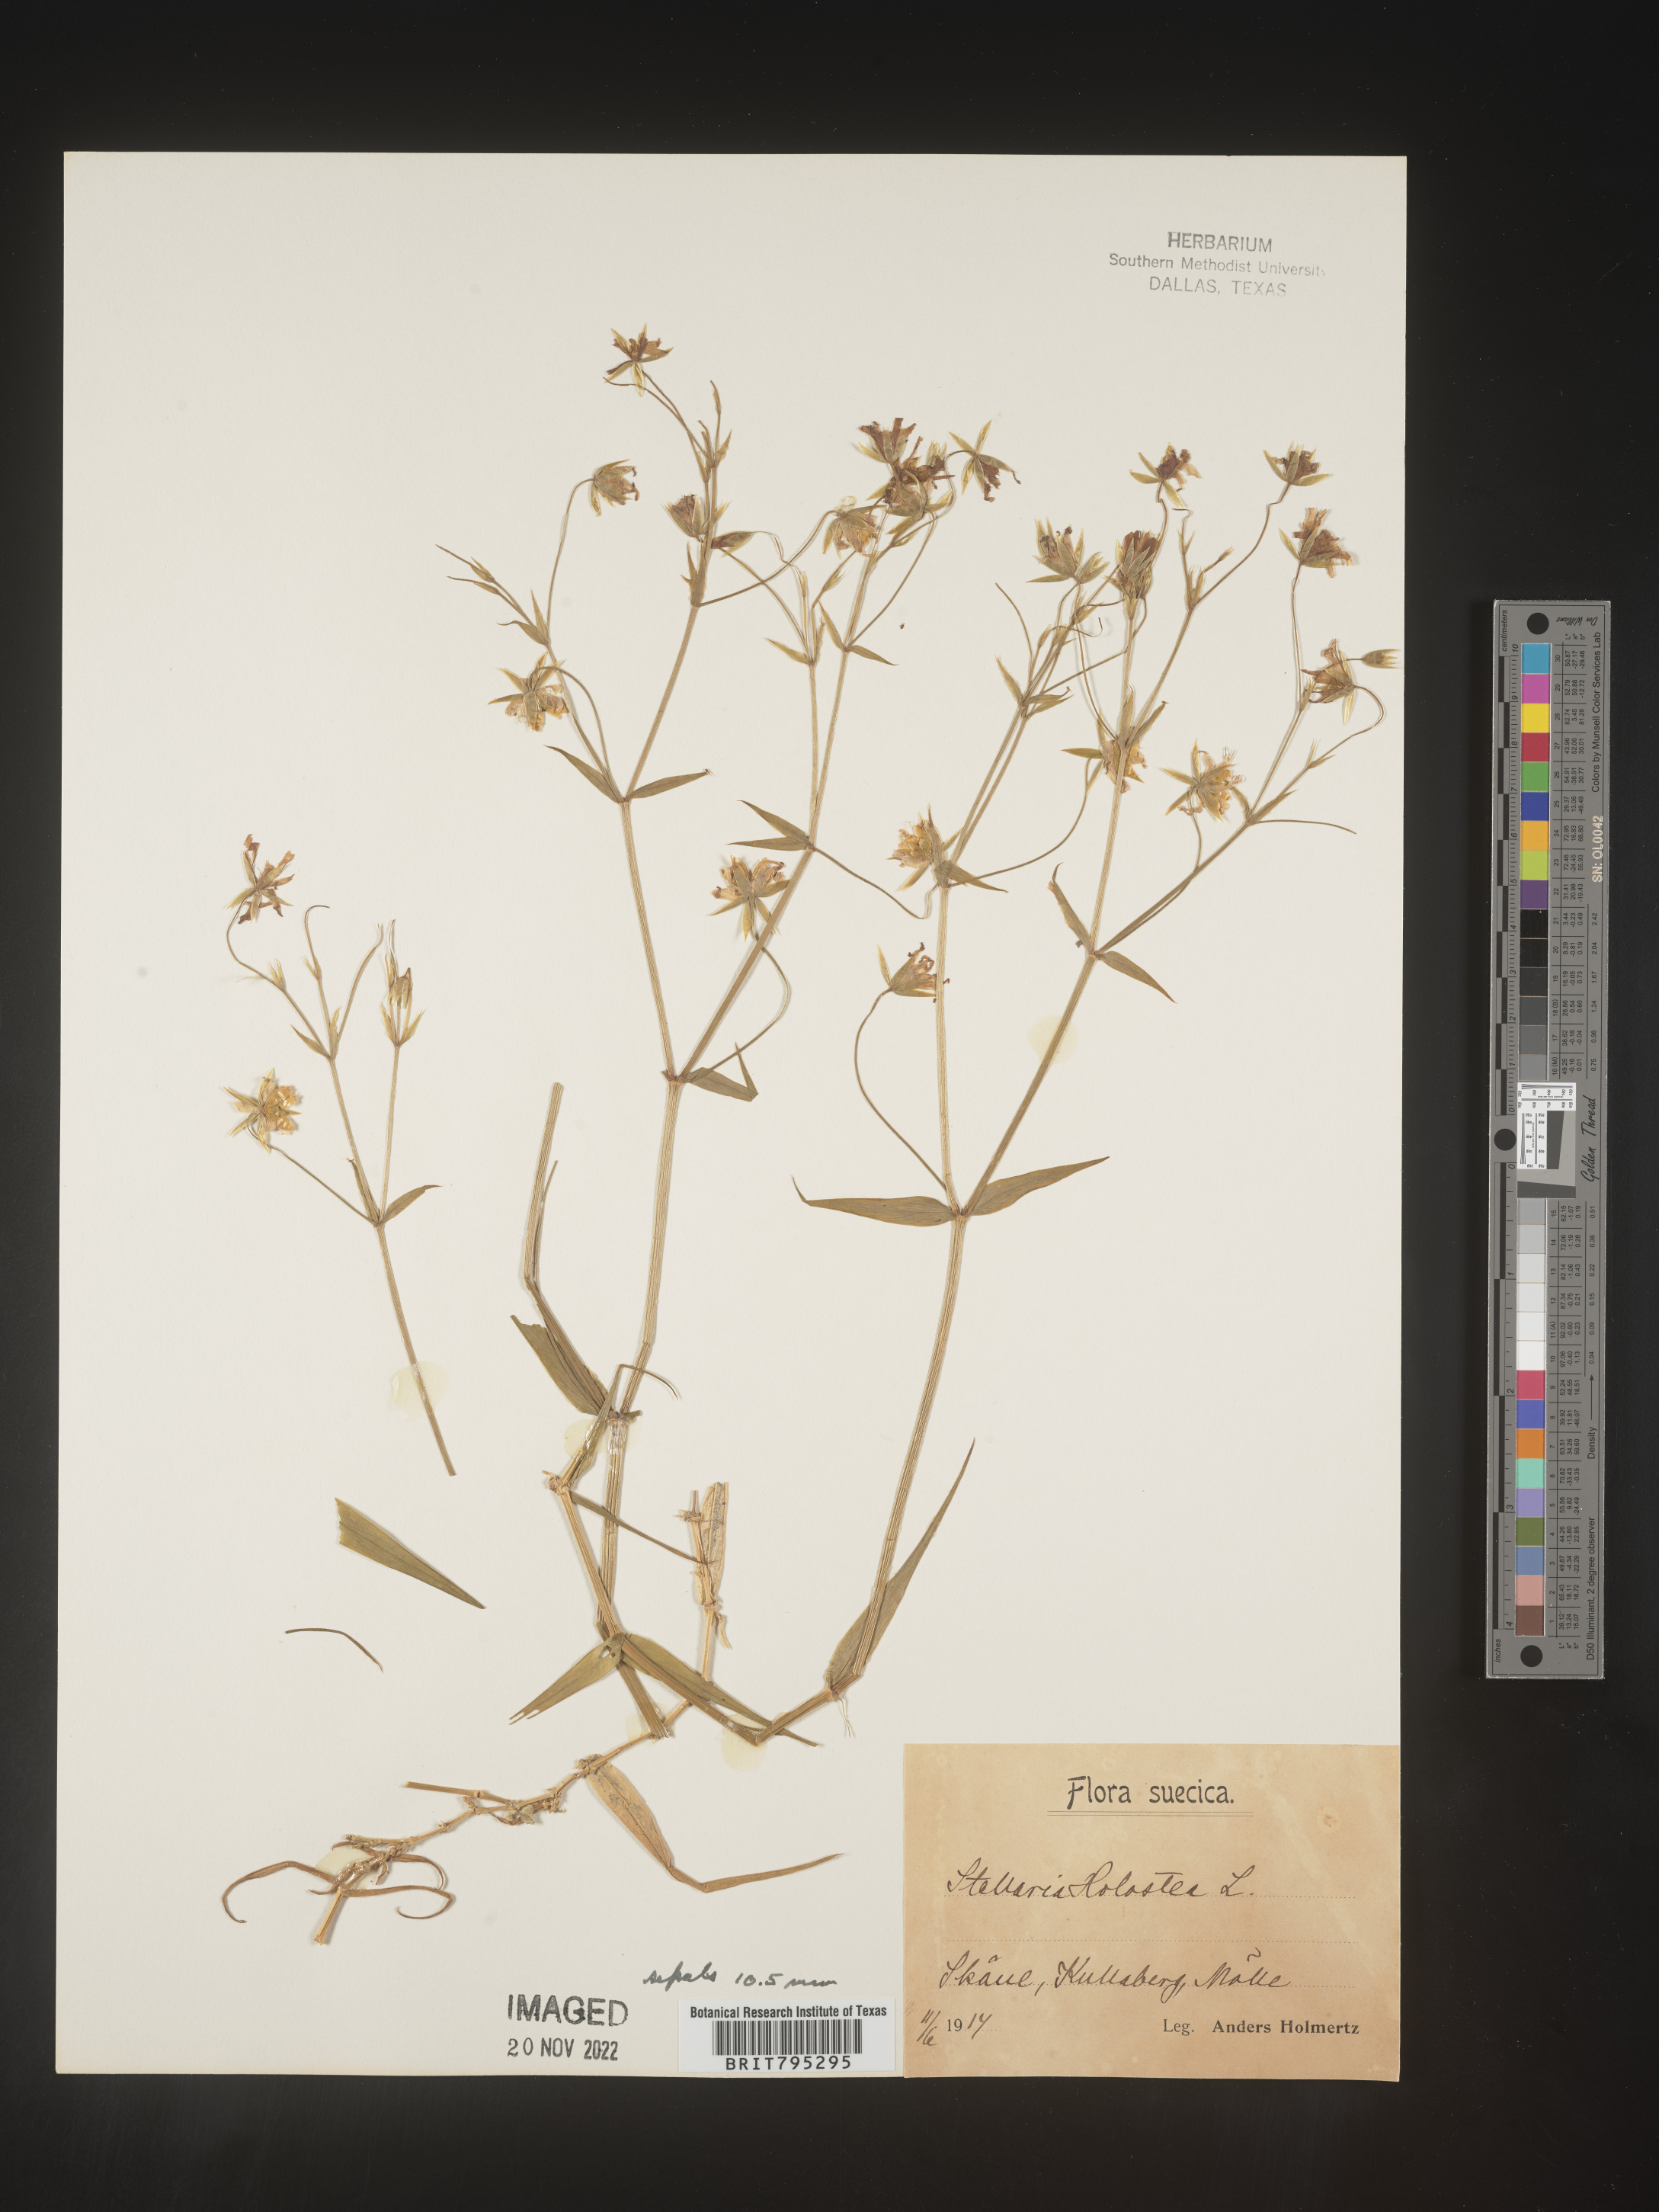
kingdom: Plantae
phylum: Tracheophyta
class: Magnoliopsida
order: Caryophyllales
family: Caryophyllaceae
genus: Stellaria
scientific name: Stellaria
